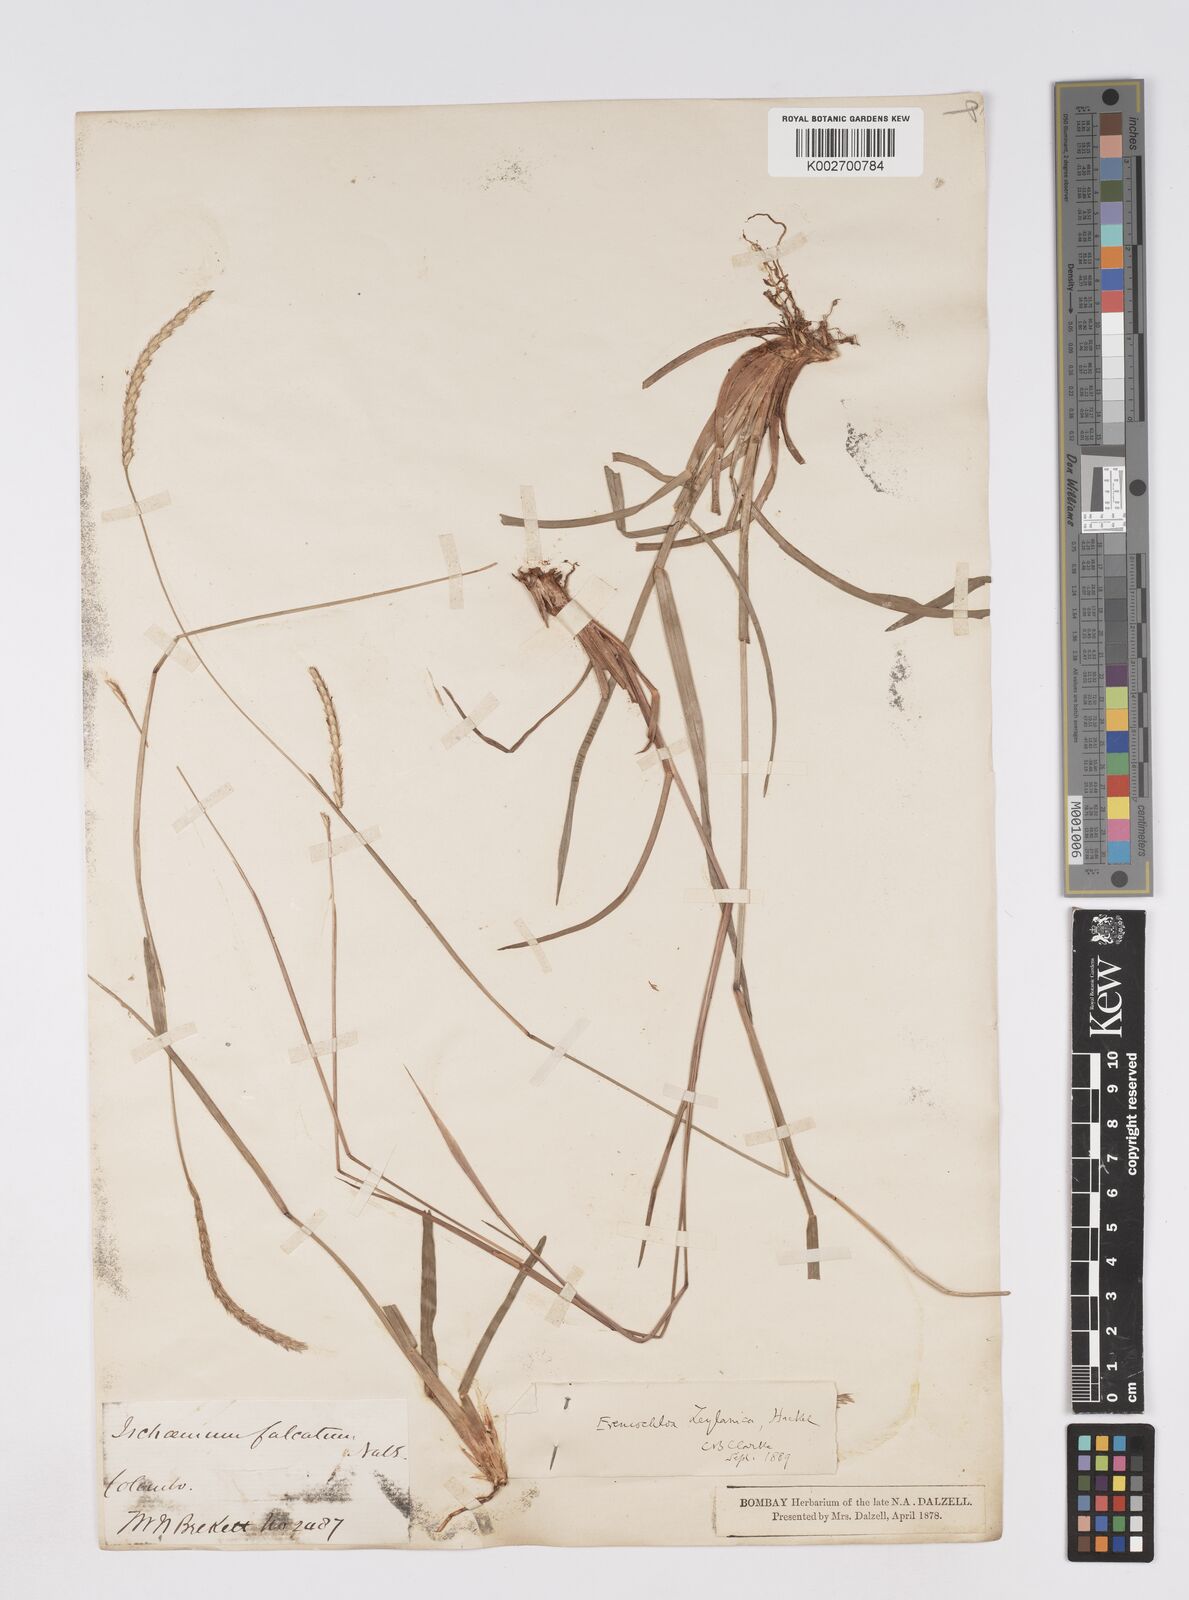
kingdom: Plantae
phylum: Tracheophyta
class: Liliopsida
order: Poales
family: Poaceae
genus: Eremochloa
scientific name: Eremochloa zeylanica
